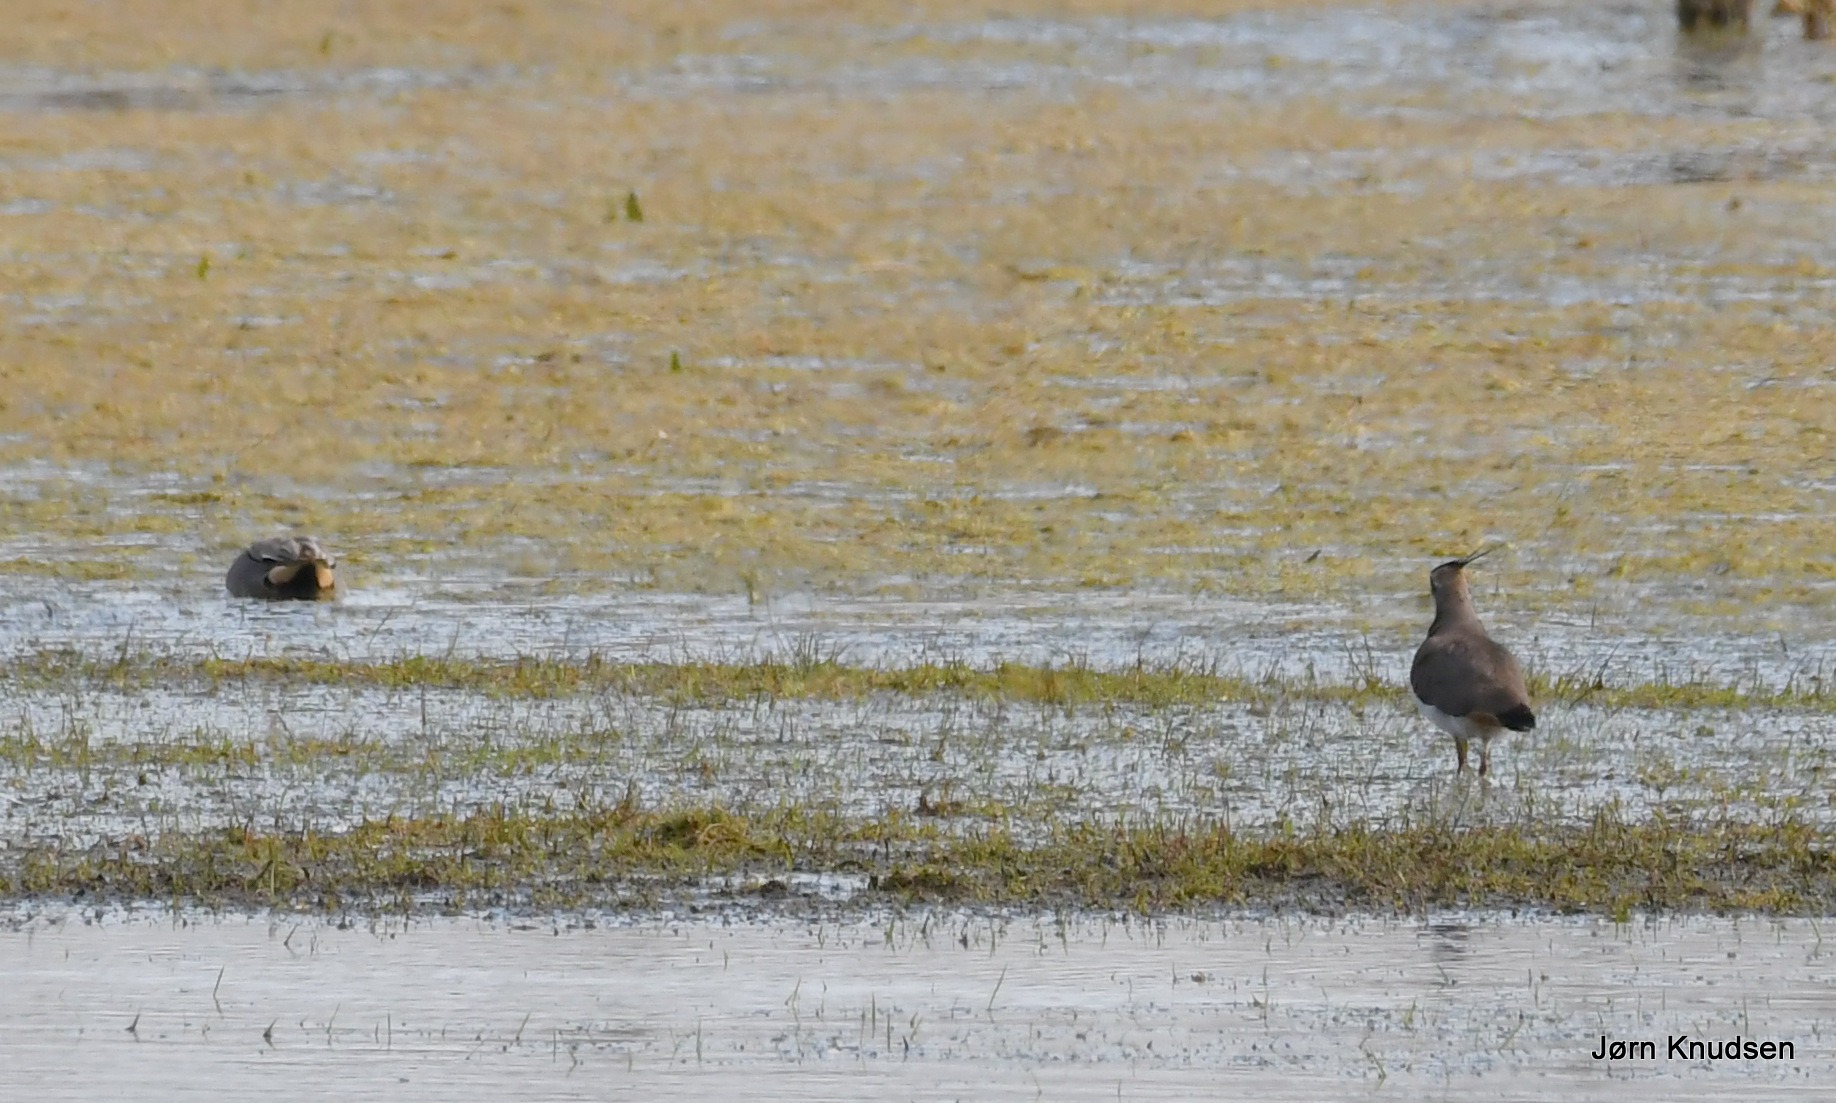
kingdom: Animalia
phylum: Chordata
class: Aves
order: Charadriiformes
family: Charadriidae
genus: Vanellus
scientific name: Vanellus vanellus
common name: Vibe
